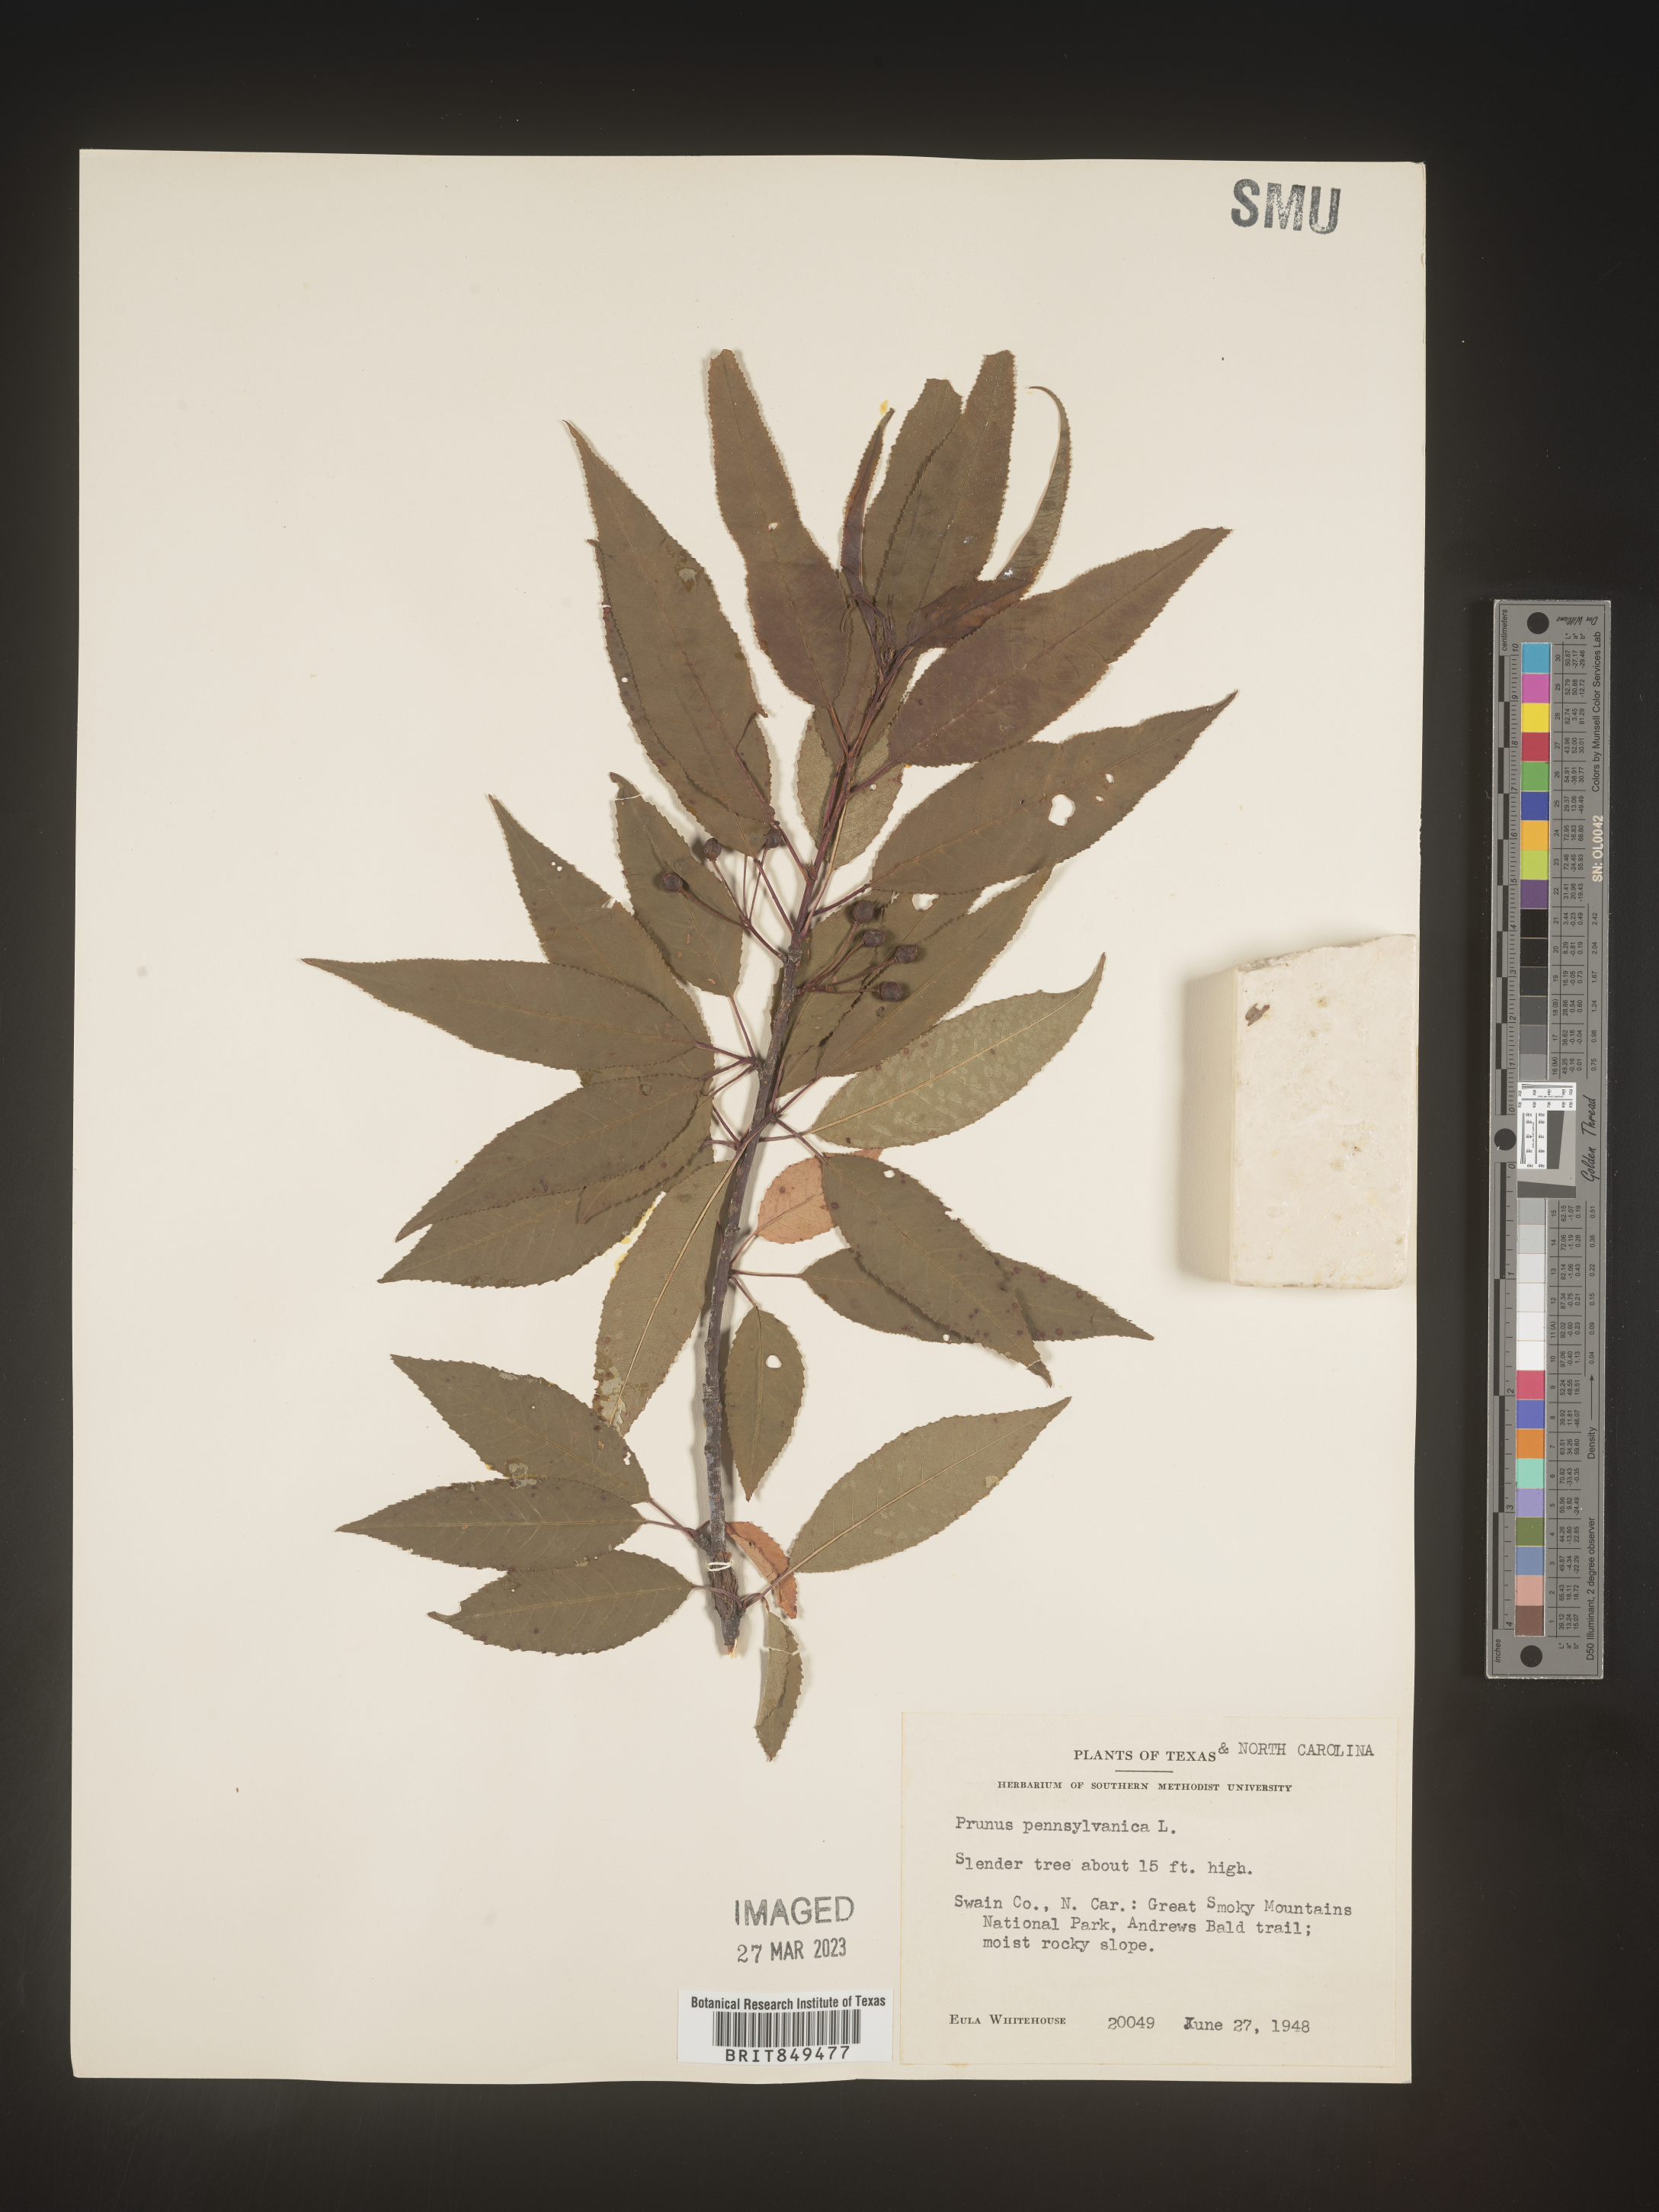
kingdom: Plantae
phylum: Tracheophyta
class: Magnoliopsida
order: Rosales
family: Rosaceae
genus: Prunus
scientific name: Prunus pensylvanica
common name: Pin cherry
